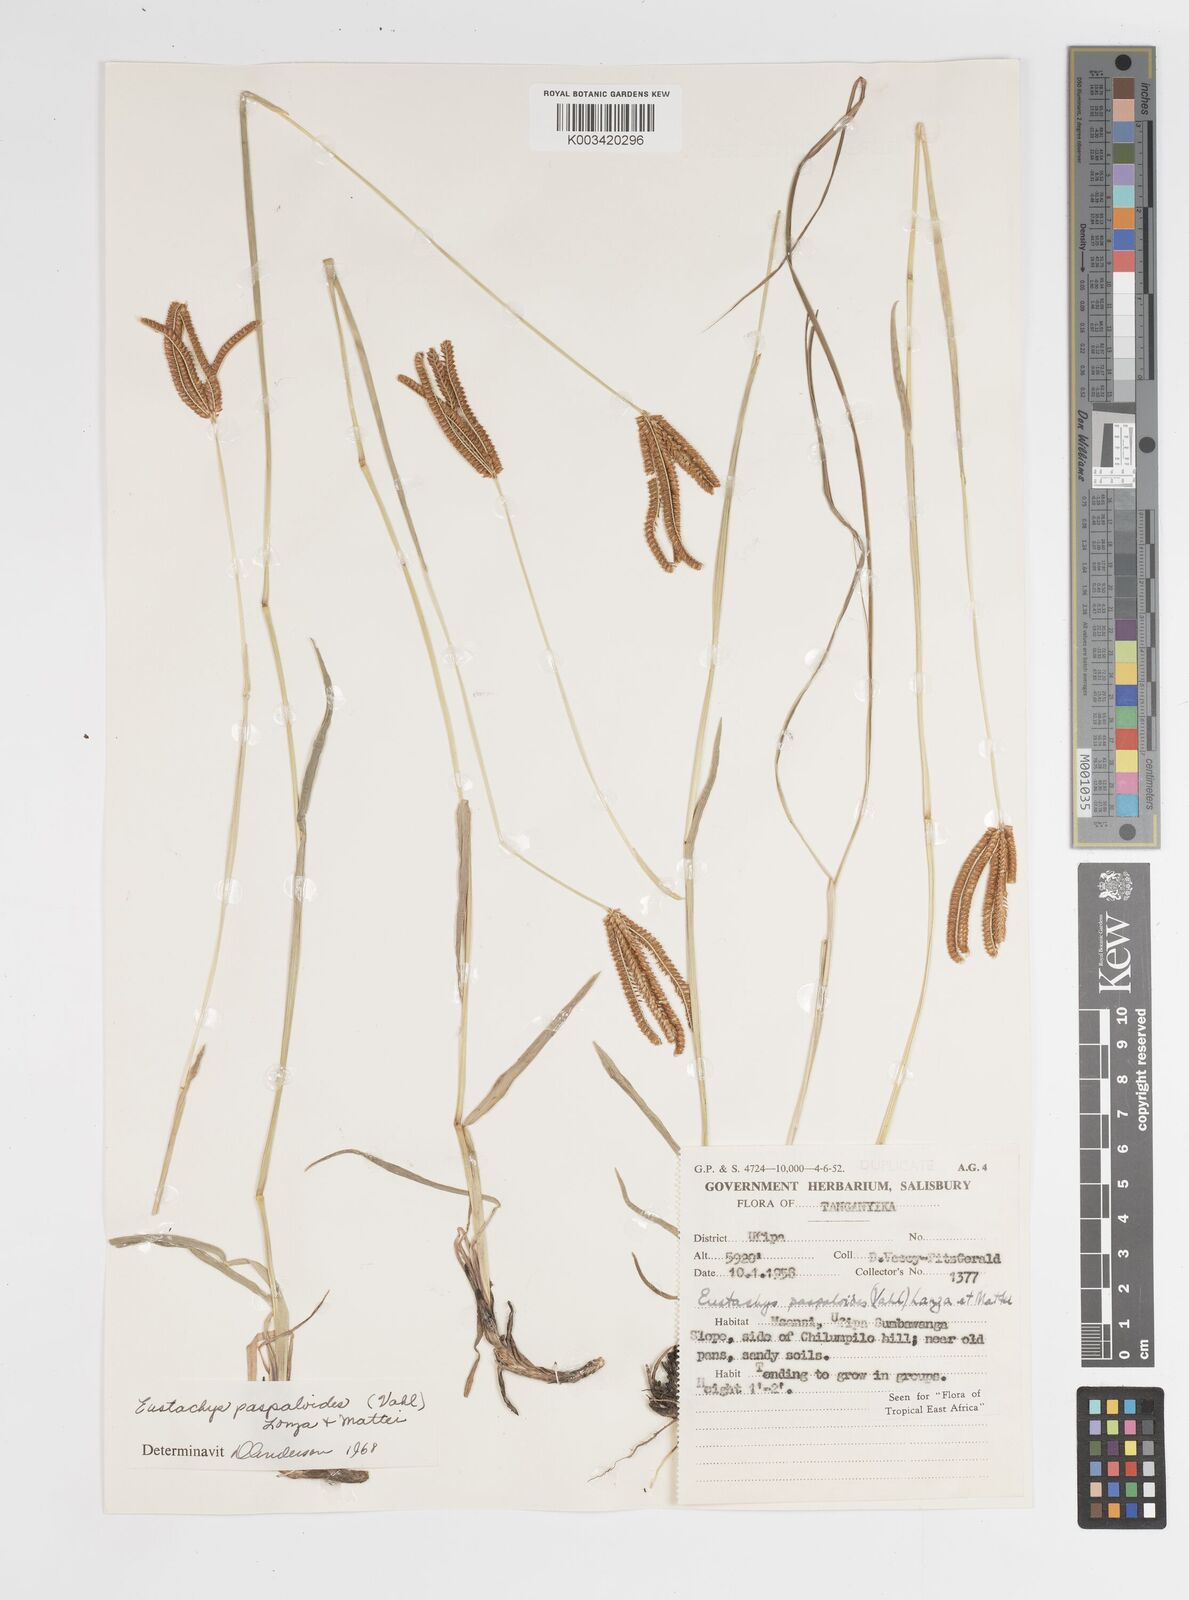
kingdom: Plantae
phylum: Tracheophyta
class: Liliopsida
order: Poales
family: Poaceae
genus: Eustachys
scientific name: Eustachys paspaloides
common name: Caribbean fingergrass
